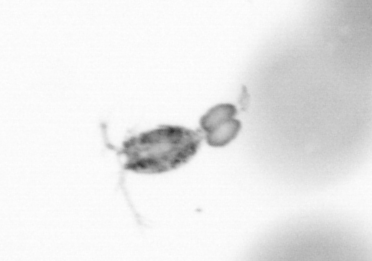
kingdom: Animalia
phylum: Arthropoda
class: Copepoda
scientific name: Copepoda
